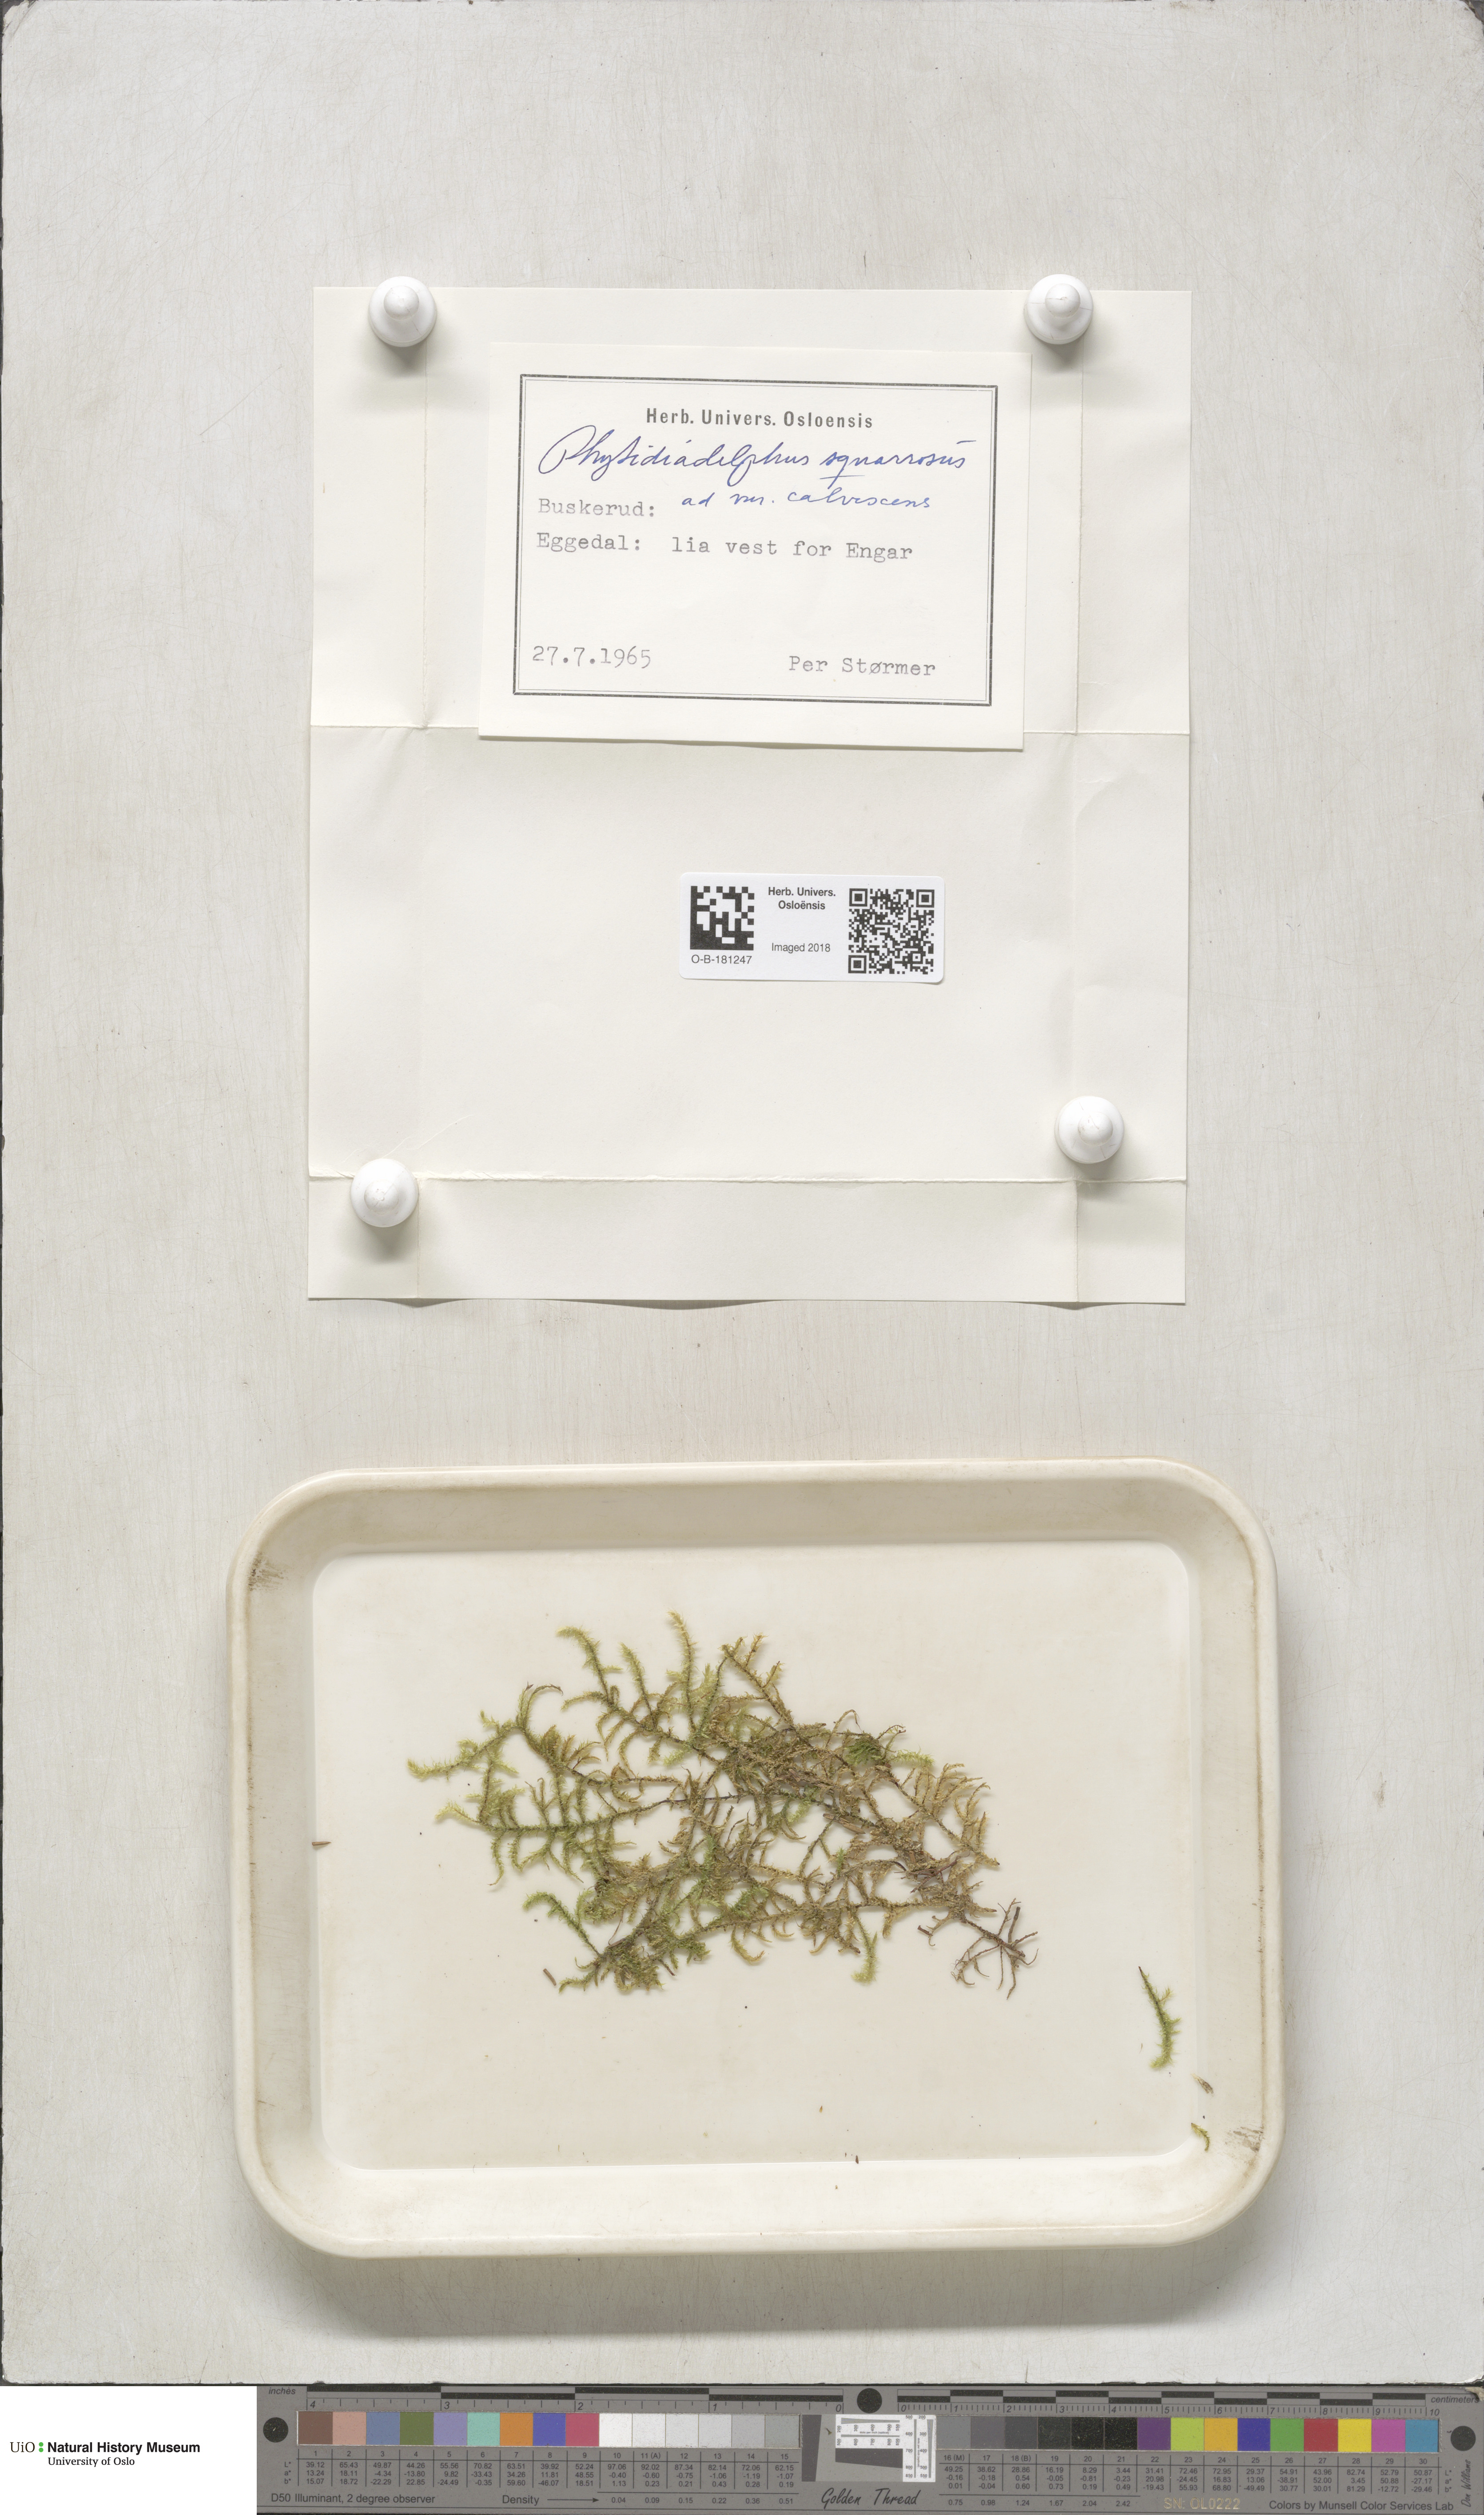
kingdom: Plantae
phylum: Bryophyta
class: Bryopsida
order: Hypnales
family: Hylocomiaceae
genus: Rhytidiadelphus
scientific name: Rhytidiadelphus subpinnatus
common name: Subpinnate gooseneck moss
